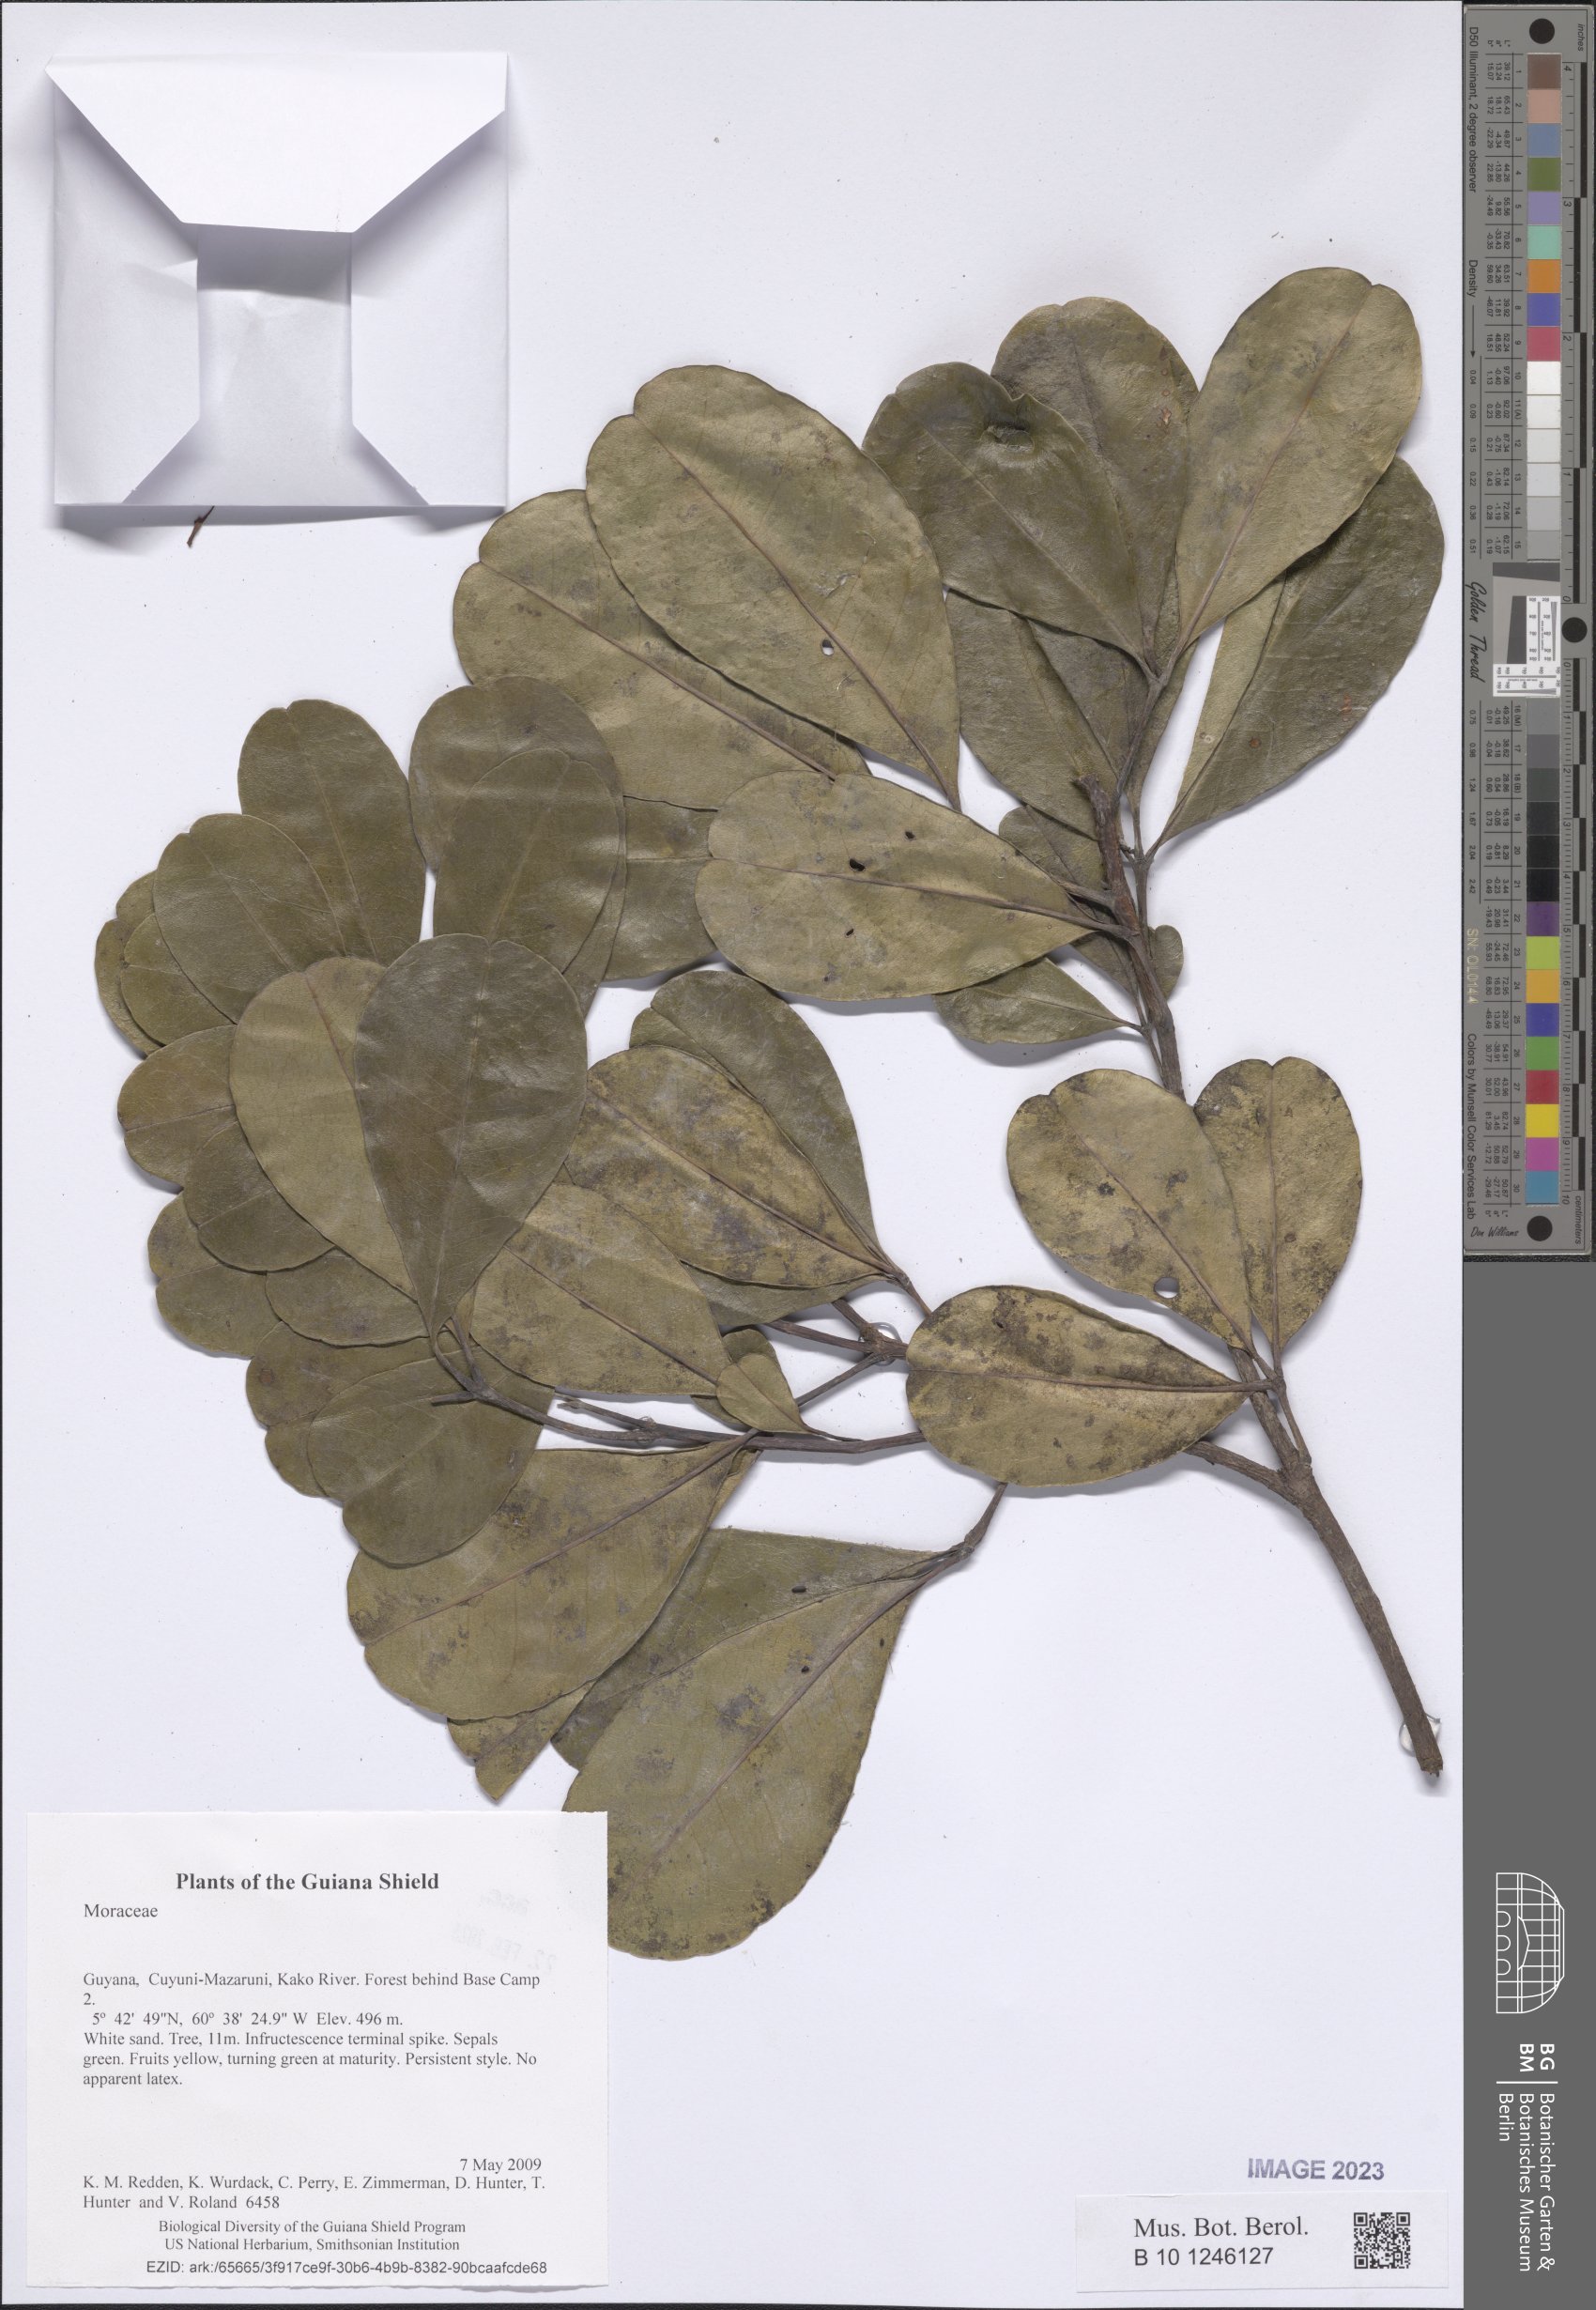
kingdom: Plantae
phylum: Tracheophyta
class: Magnoliopsida
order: Sapindales
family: Rutaceae
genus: Helietta
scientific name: Helietta
